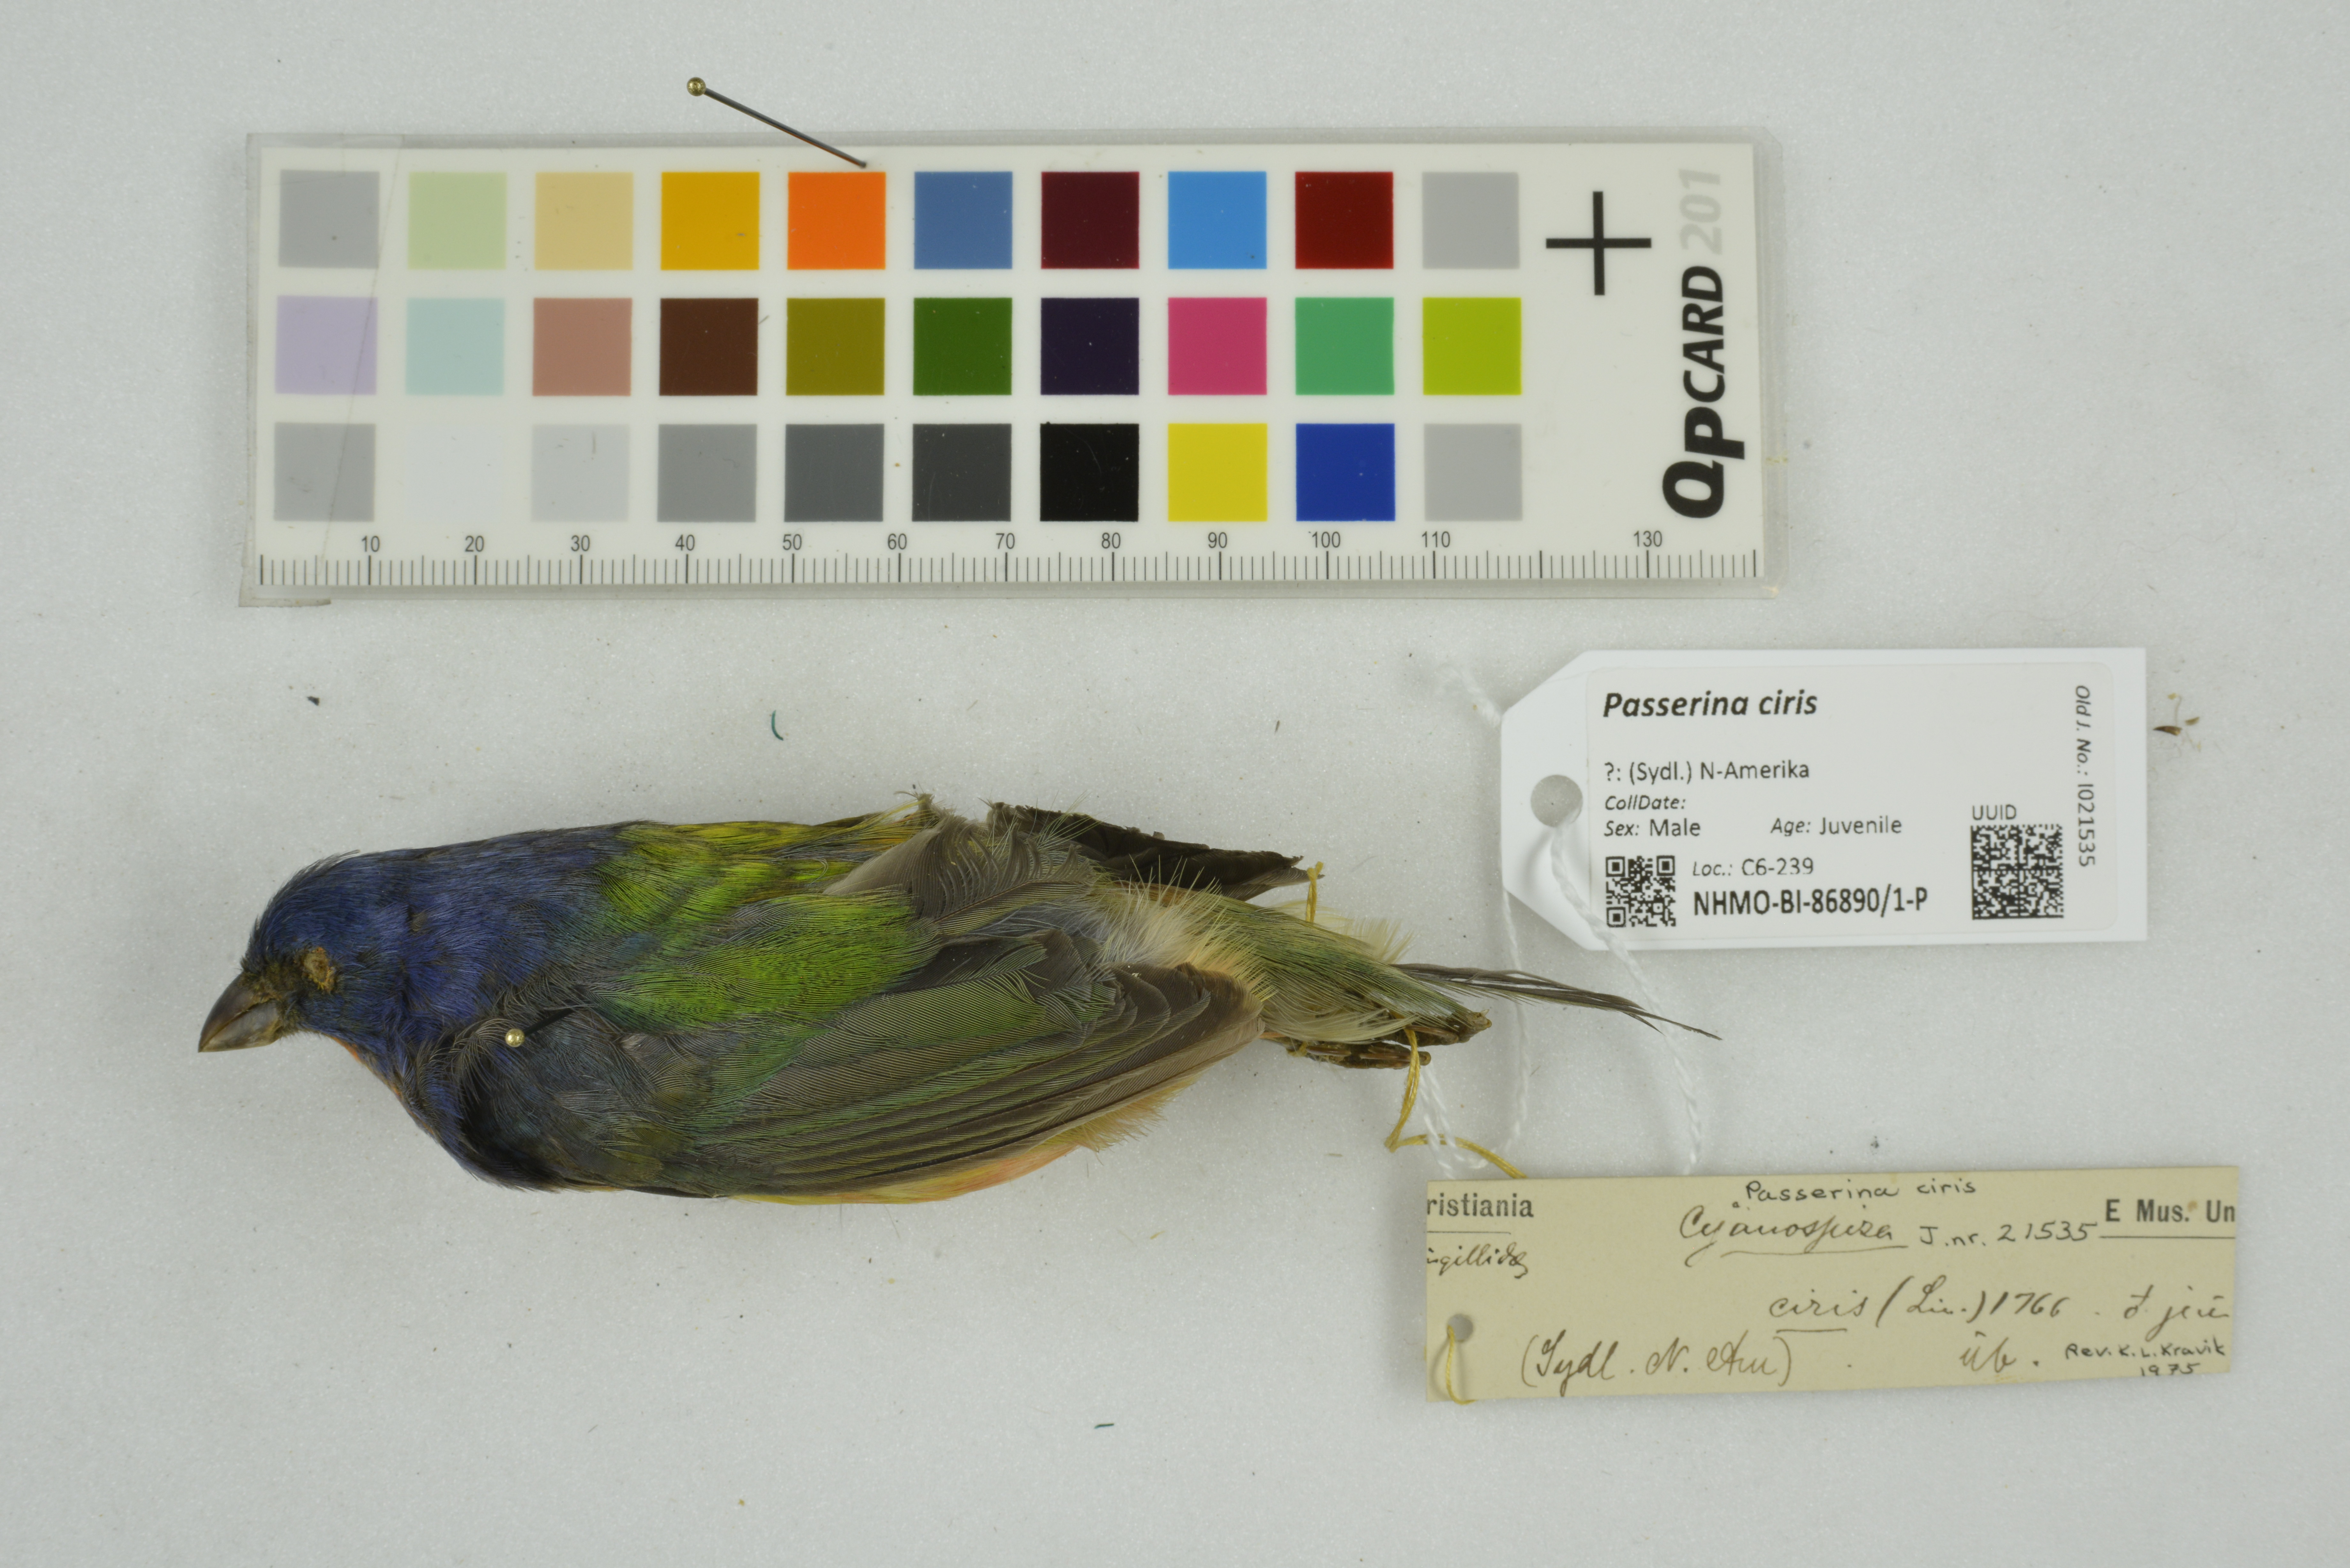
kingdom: Animalia
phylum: Chordata
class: Aves
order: Passeriformes
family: Cardinalidae
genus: Passerina
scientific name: Passerina ciris
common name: Painted bunting
